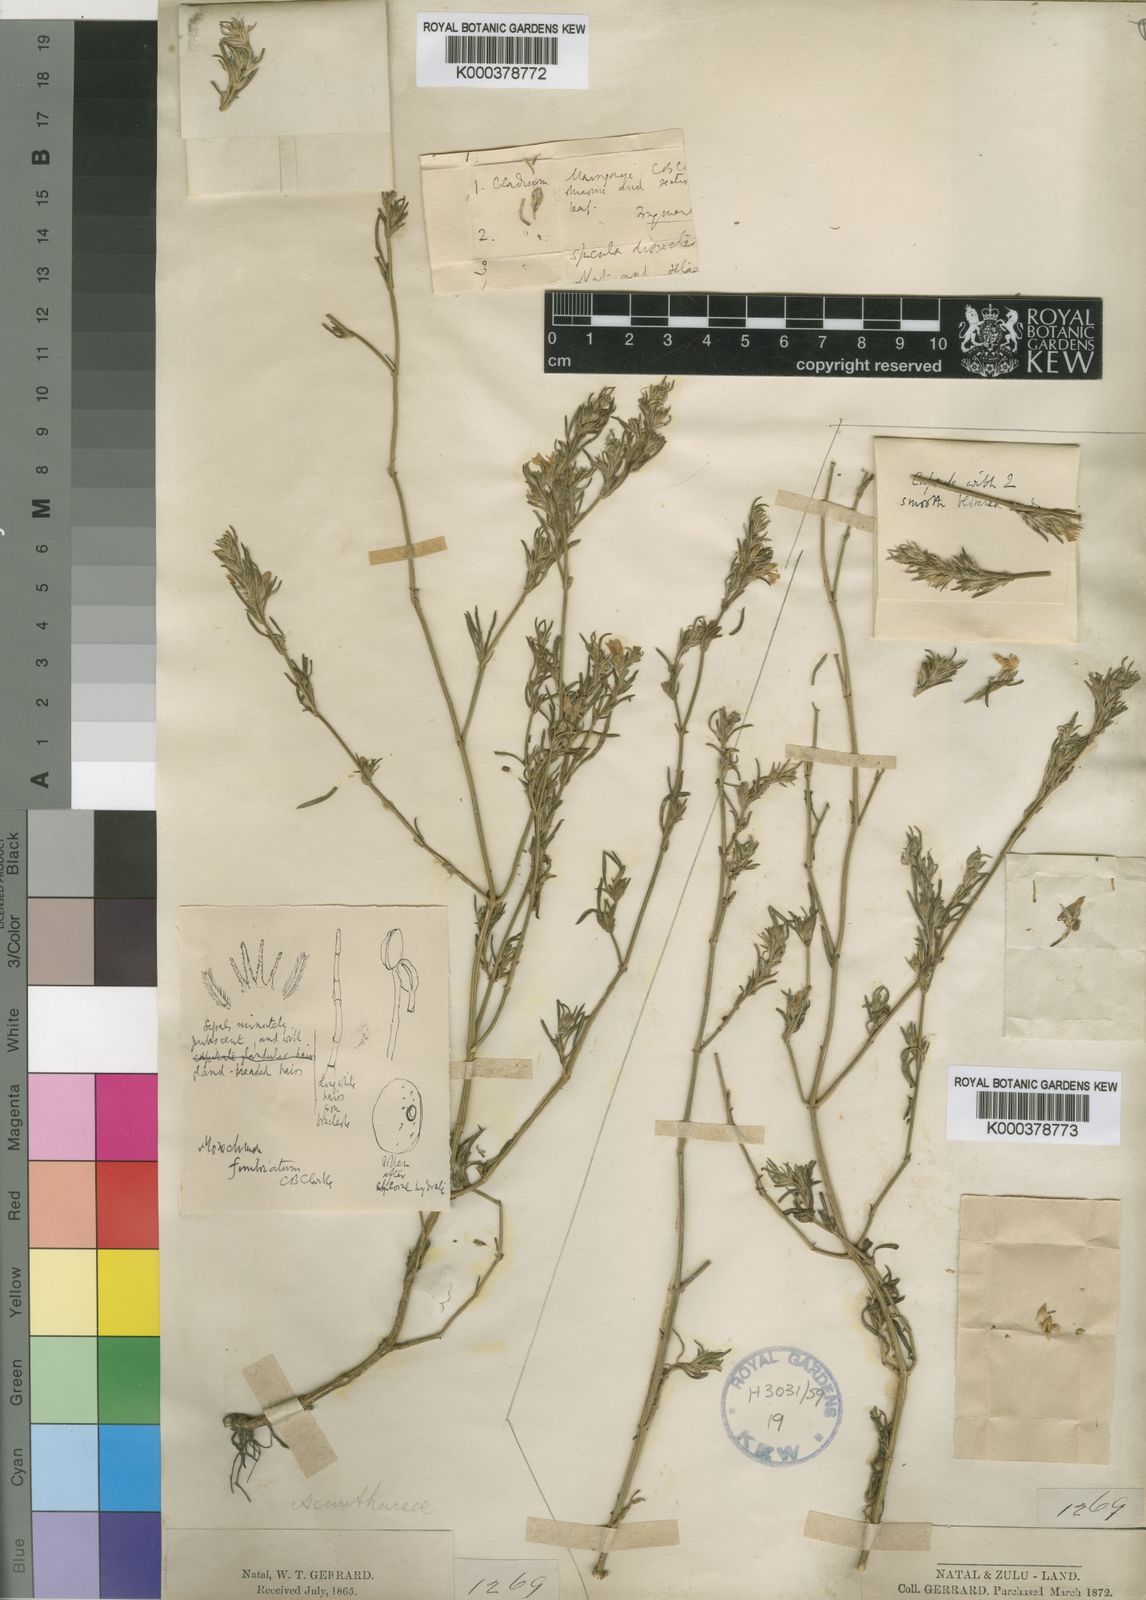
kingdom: Plantae
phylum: Tracheophyta
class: Magnoliopsida
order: Lamiales
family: Acanthaceae
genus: Monechma
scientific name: Monechma divaricatum
